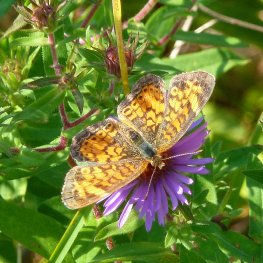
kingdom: Animalia
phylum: Arthropoda
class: Insecta
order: Lepidoptera
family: Nymphalidae
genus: Phyciodes
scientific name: Phyciodes tharos
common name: Northern Crescent
